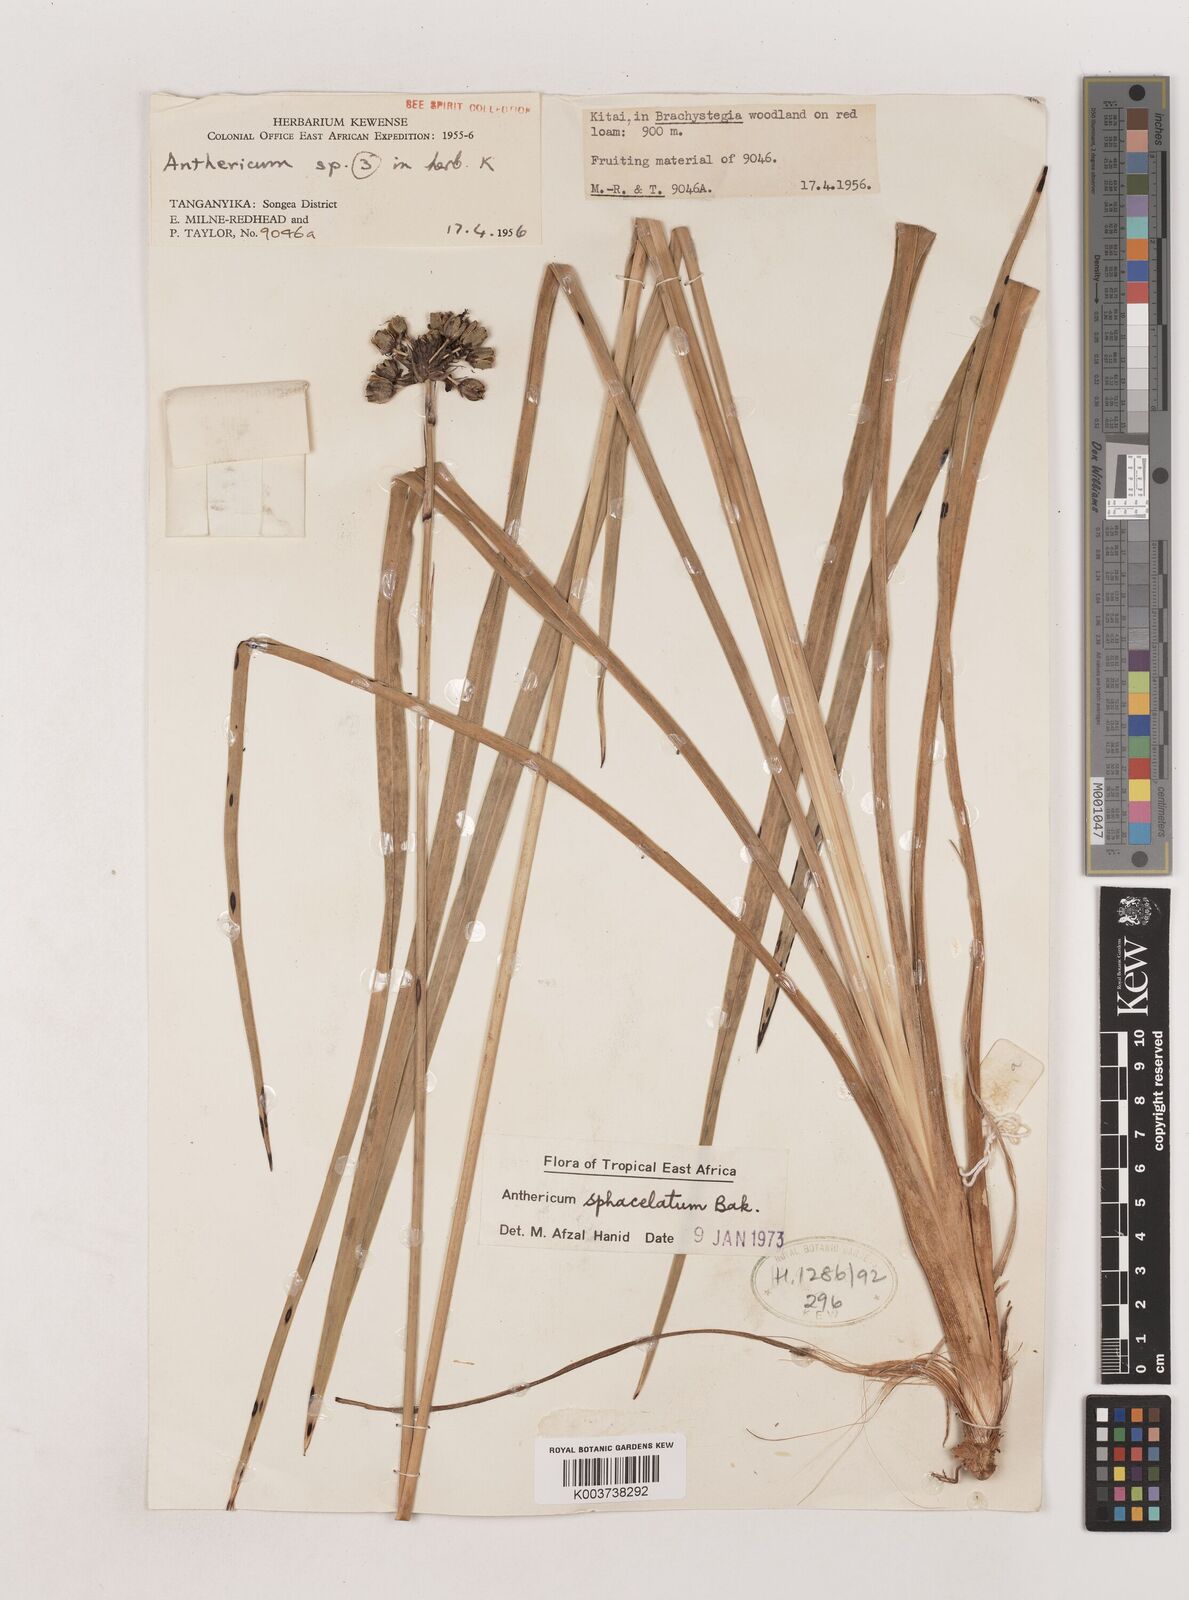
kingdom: Plantae
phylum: Tracheophyta
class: Liliopsida
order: Asparagales
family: Asparagaceae
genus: Chlorophytum
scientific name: Chlorophytum sphacelatum
